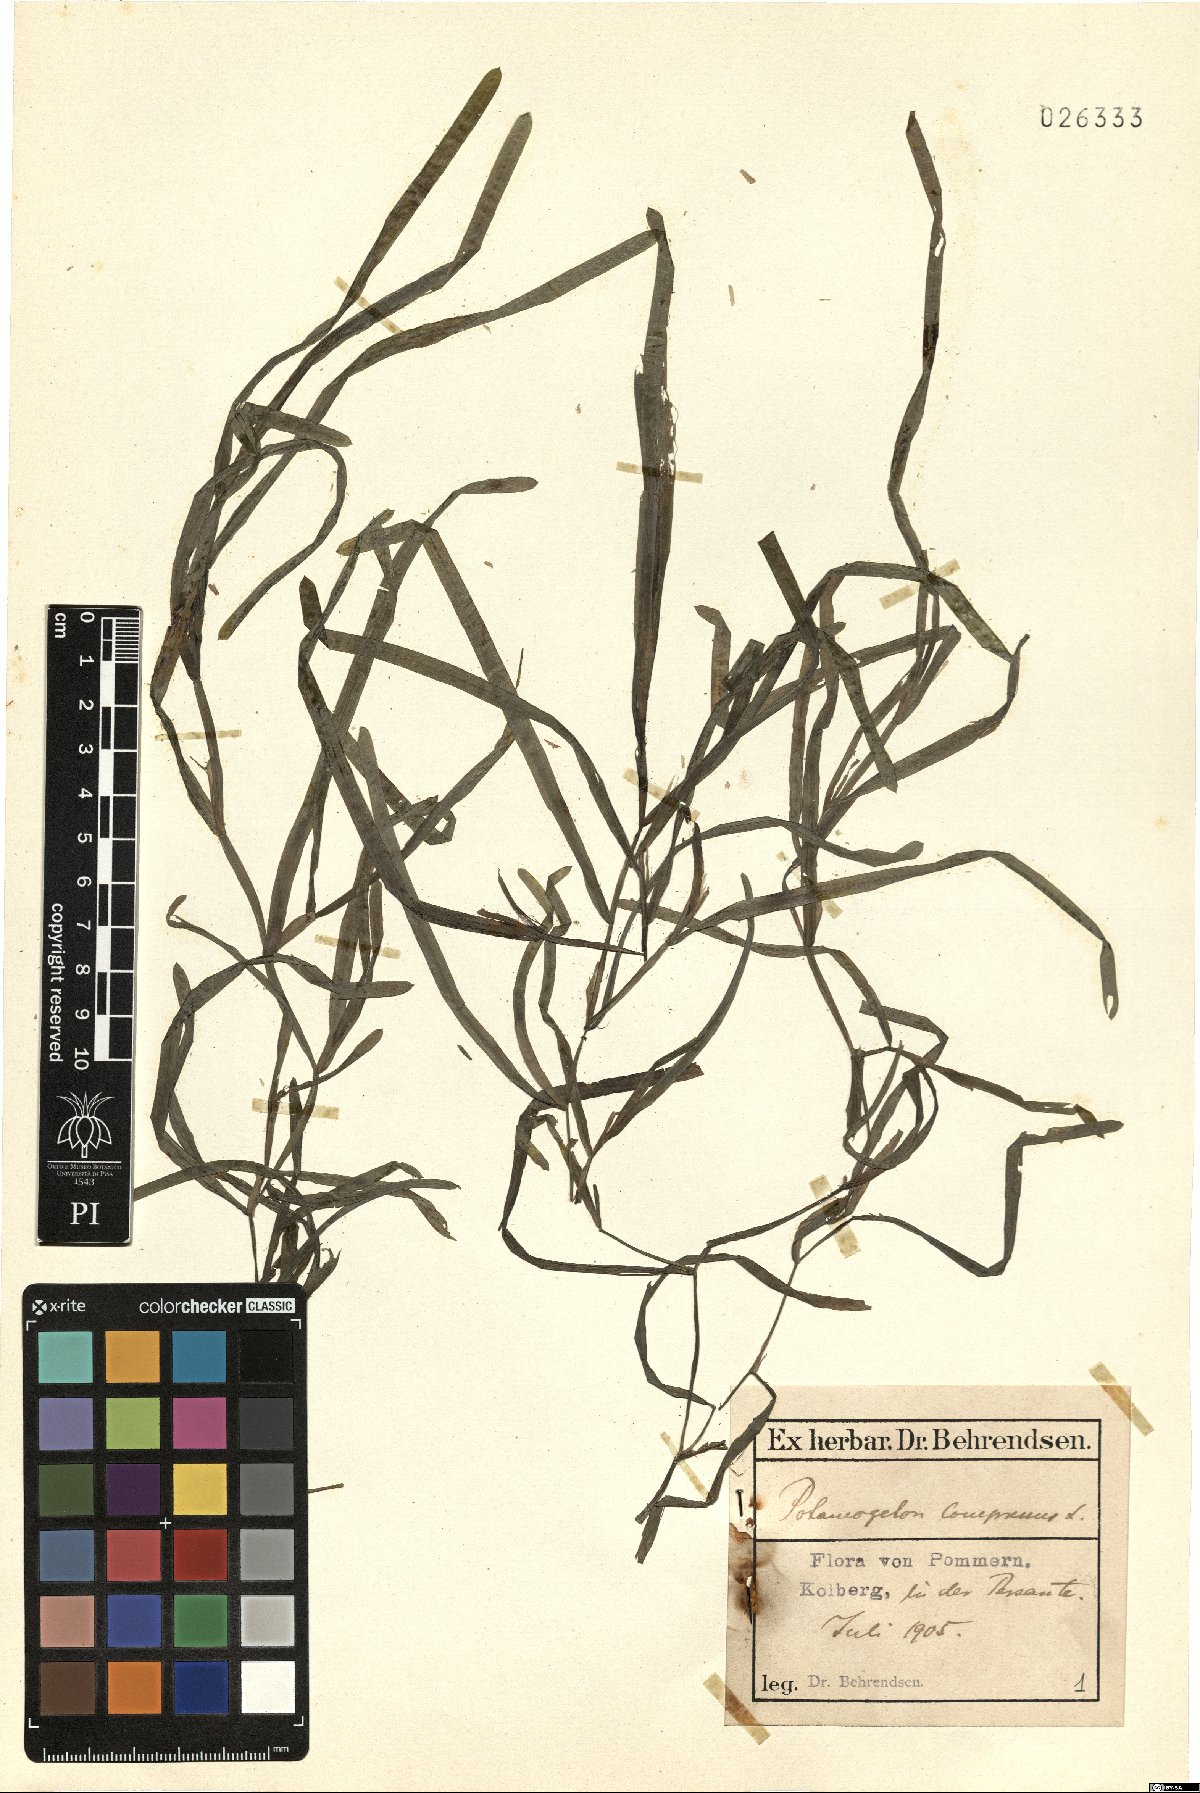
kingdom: Plantae
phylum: Tracheophyta
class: Liliopsida
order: Alismatales
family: Potamogetonaceae
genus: Potamogeton
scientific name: Potamogeton compressus
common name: Grass-wrack pondweed
